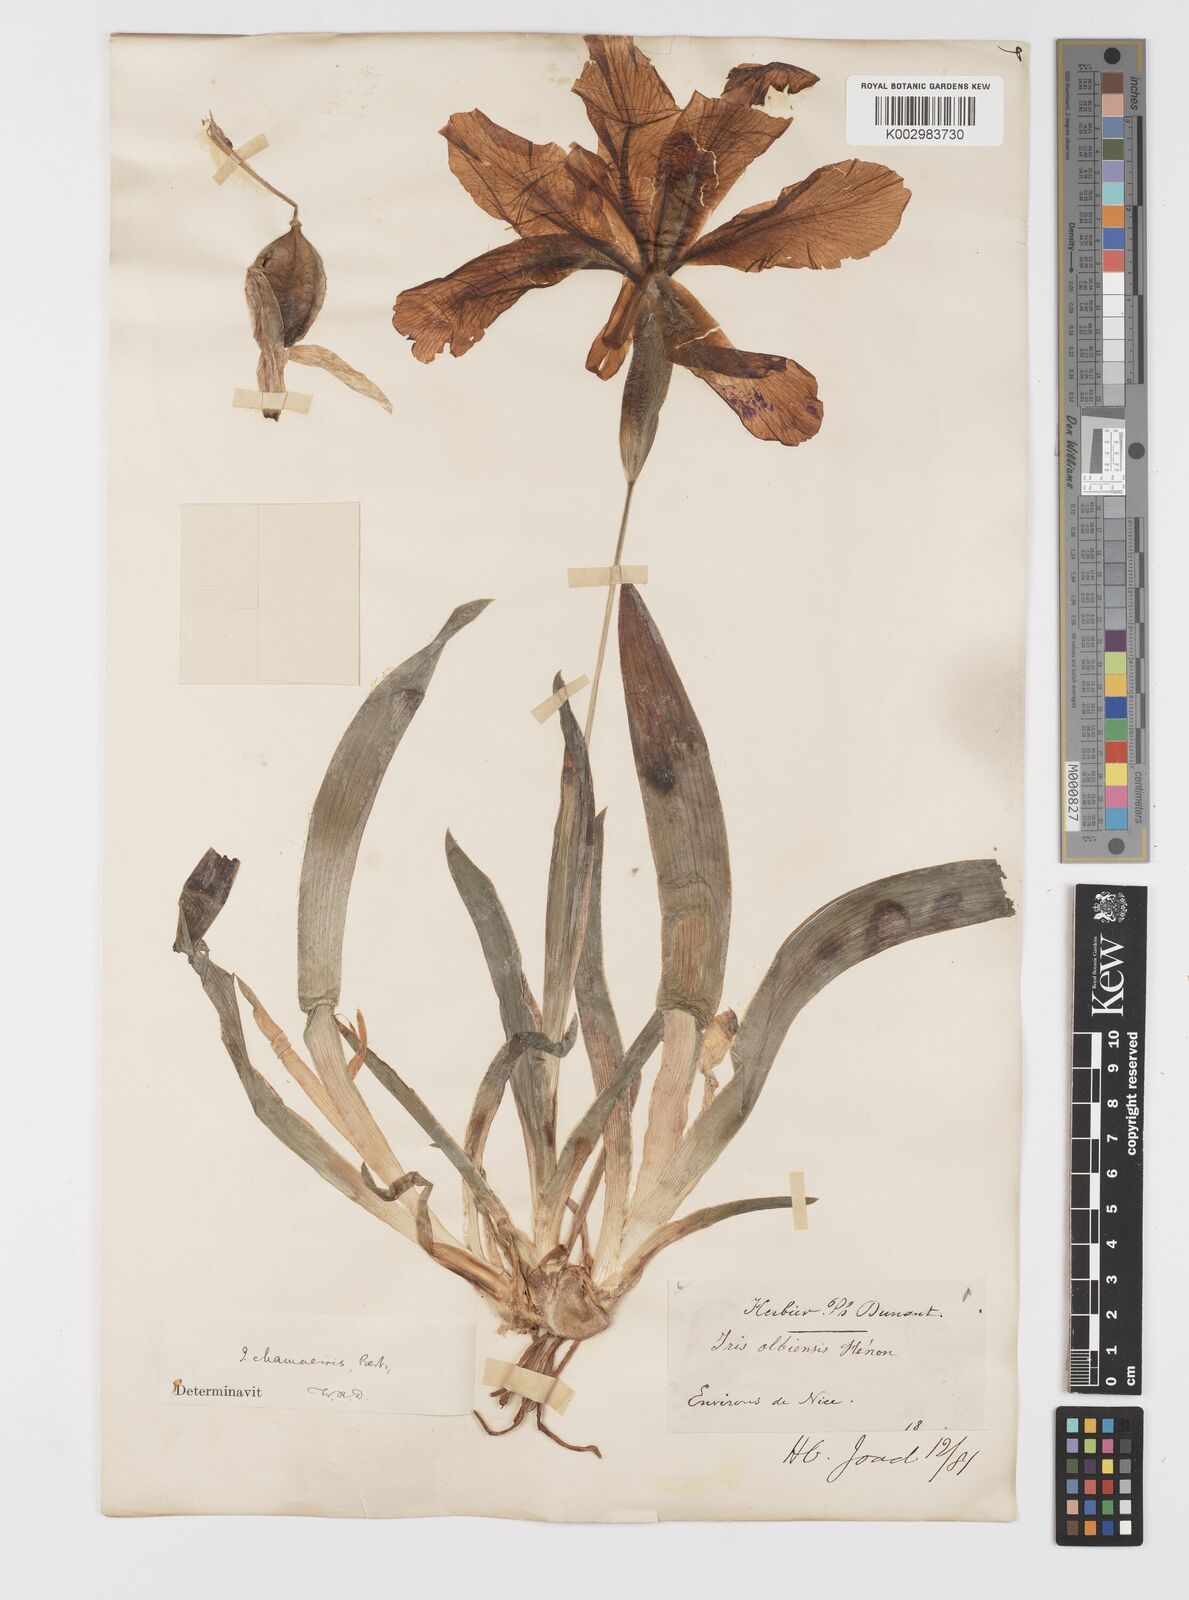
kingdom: Plantae
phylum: Tracheophyta
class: Liliopsida
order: Asparagales
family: Iridaceae
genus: Iris
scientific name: Iris lutescens
